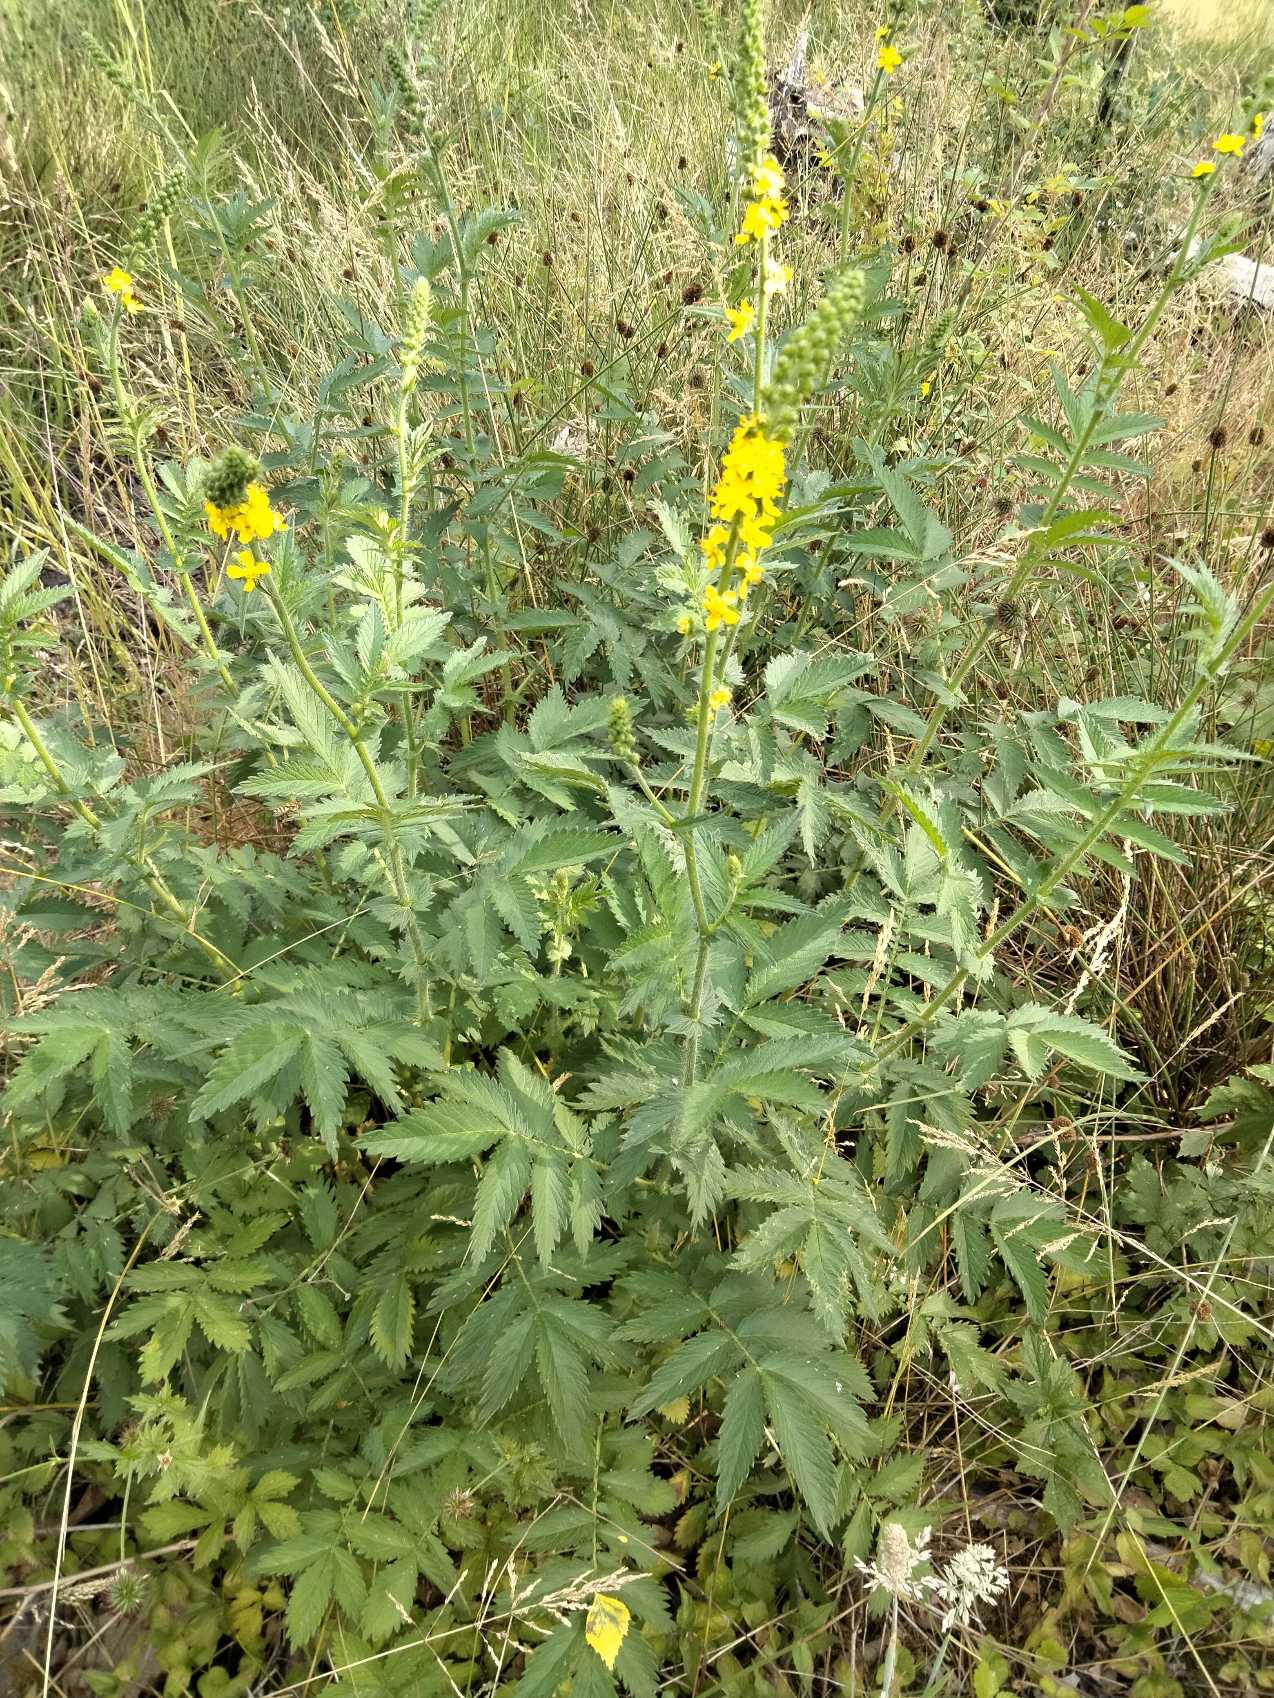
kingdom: Plantae
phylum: Tracheophyta
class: Magnoliopsida
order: Rosales
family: Rosaceae
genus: Agrimonia
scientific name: Agrimonia eupatoria
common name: Almindelig agermåne
